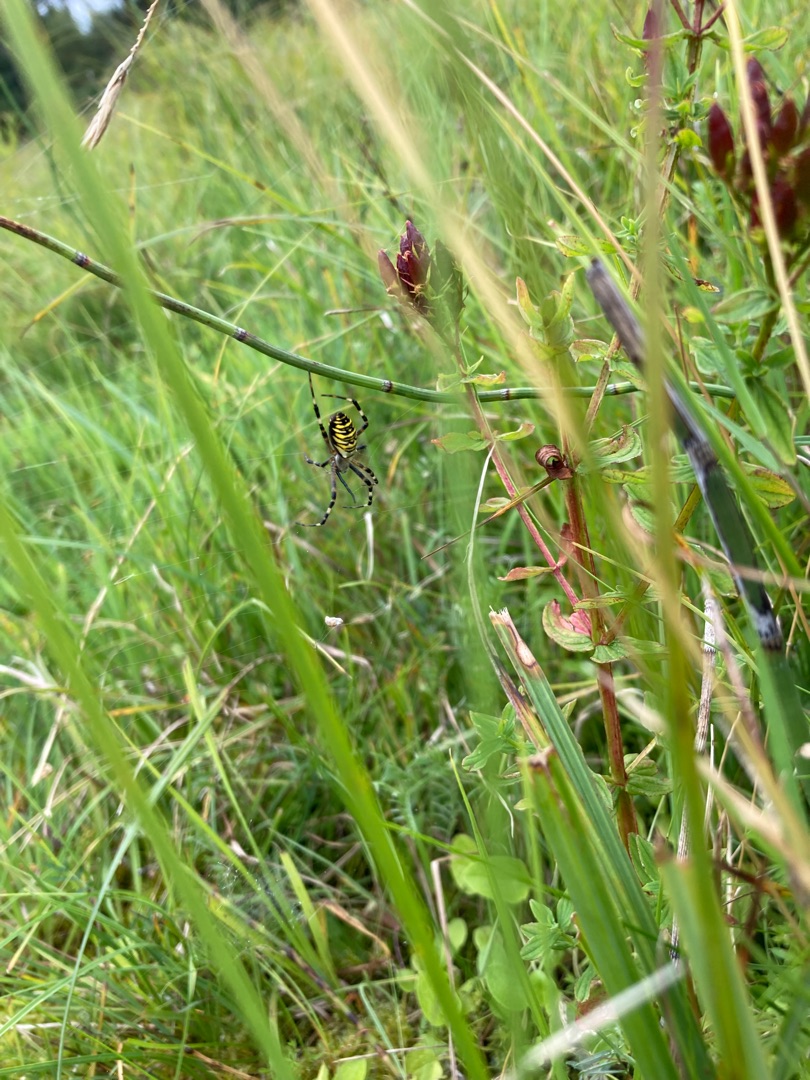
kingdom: Animalia
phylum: Arthropoda
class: Arachnida
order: Araneae
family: Araneidae
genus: Argiope
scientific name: Argiope bruennichi
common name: Hvepseedderkop
